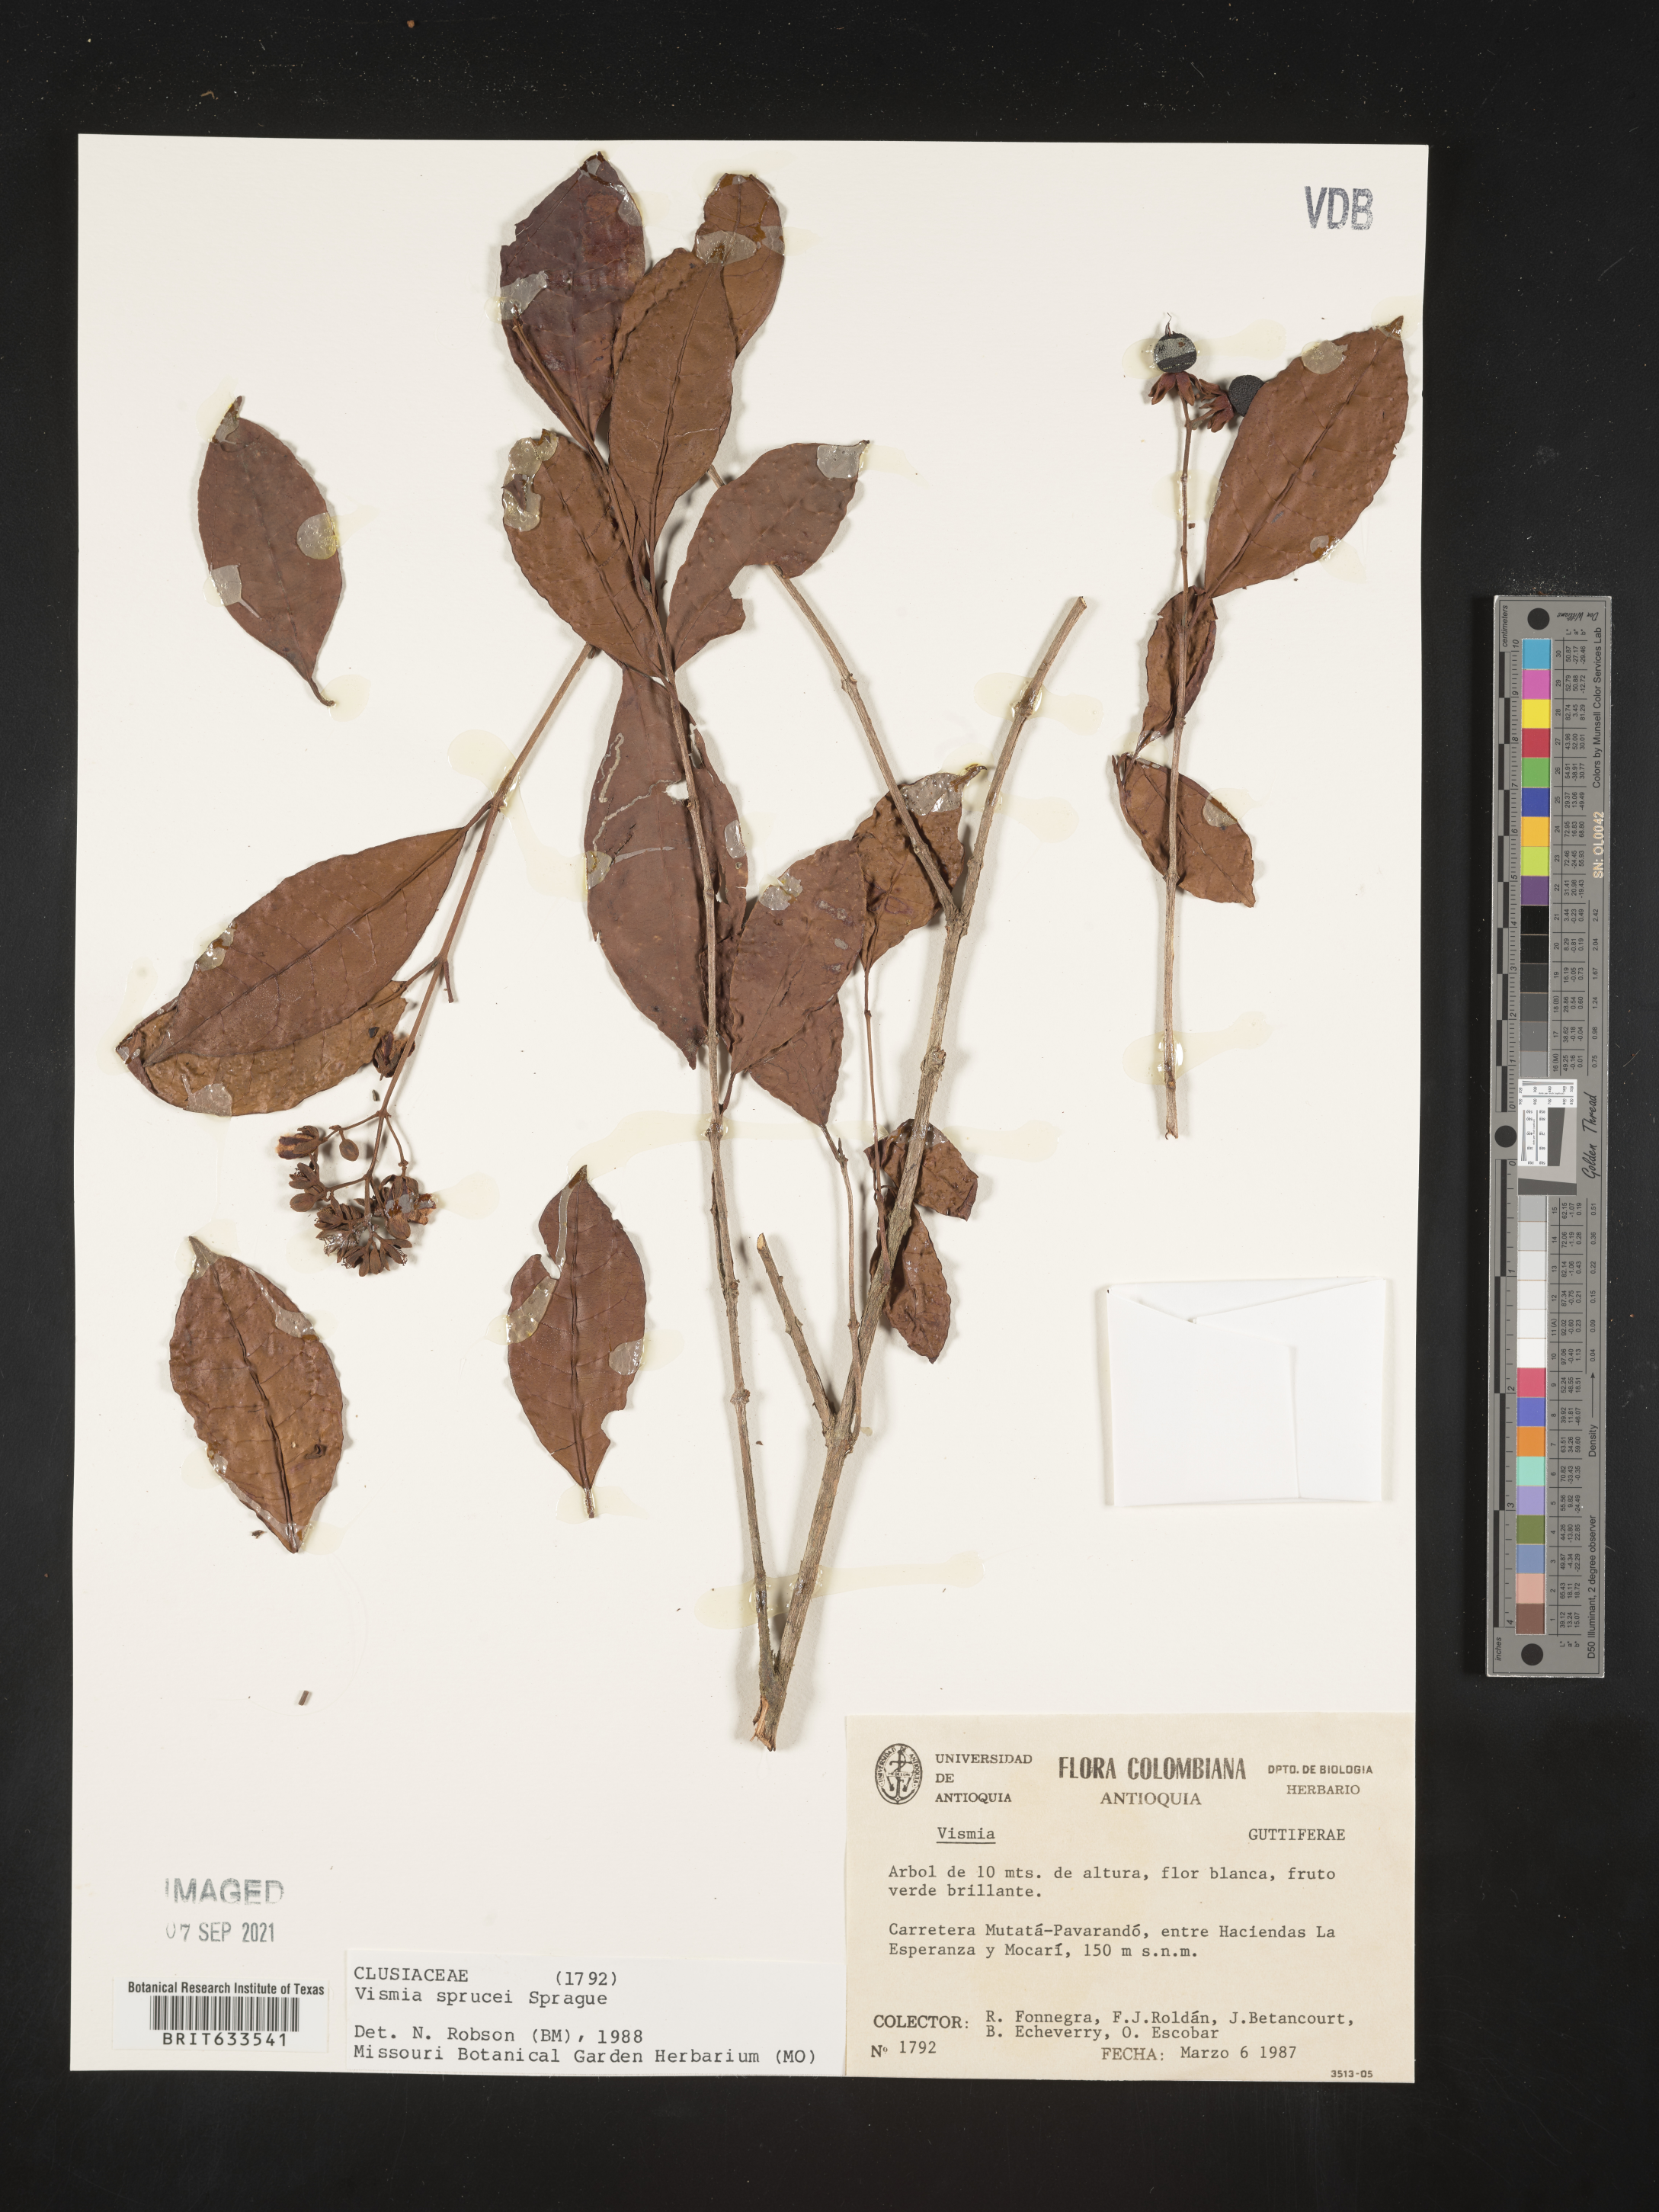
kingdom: Plantae
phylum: Tracheophyta
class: Magnoliopsida
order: Malpighiales
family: Hypericaceae
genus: Vismia
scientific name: Vismia
